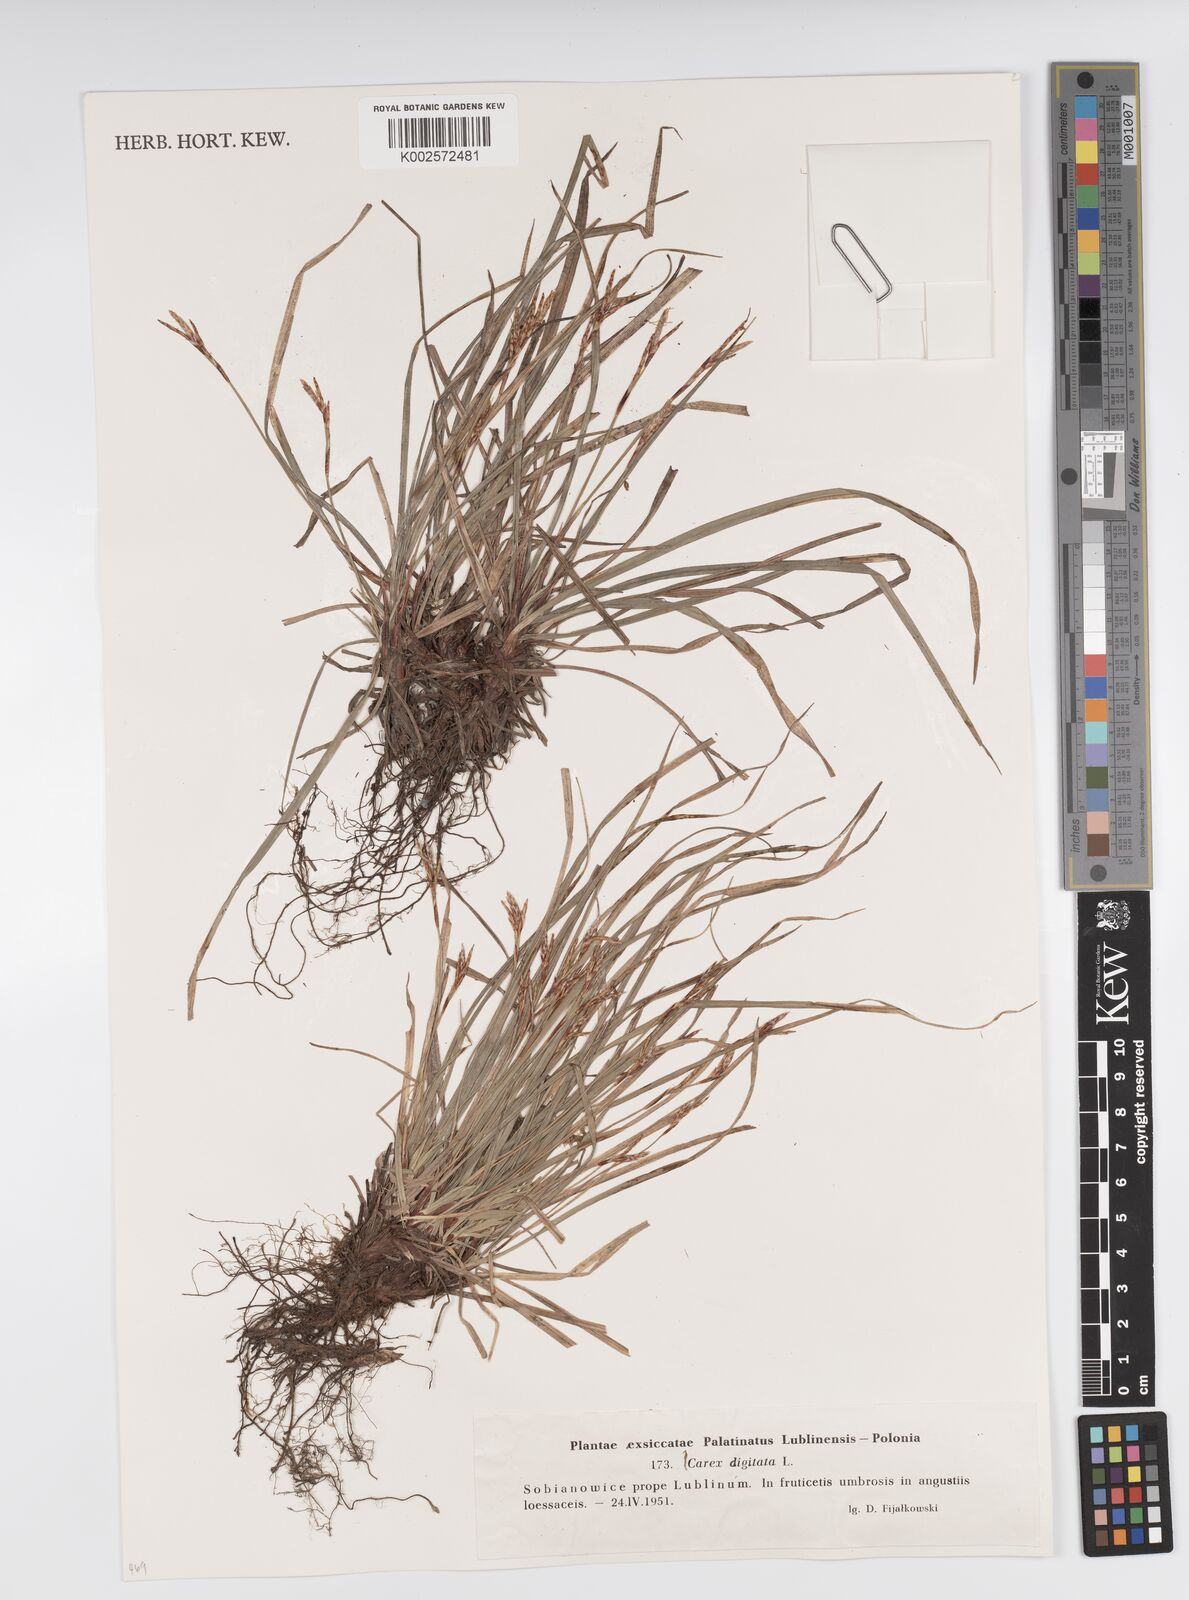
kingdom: Plantae
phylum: Tracheophyta
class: Liliopsida
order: Poales
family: Cyperaceae
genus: Carex
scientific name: Carex digitata
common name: Fingered sedge
